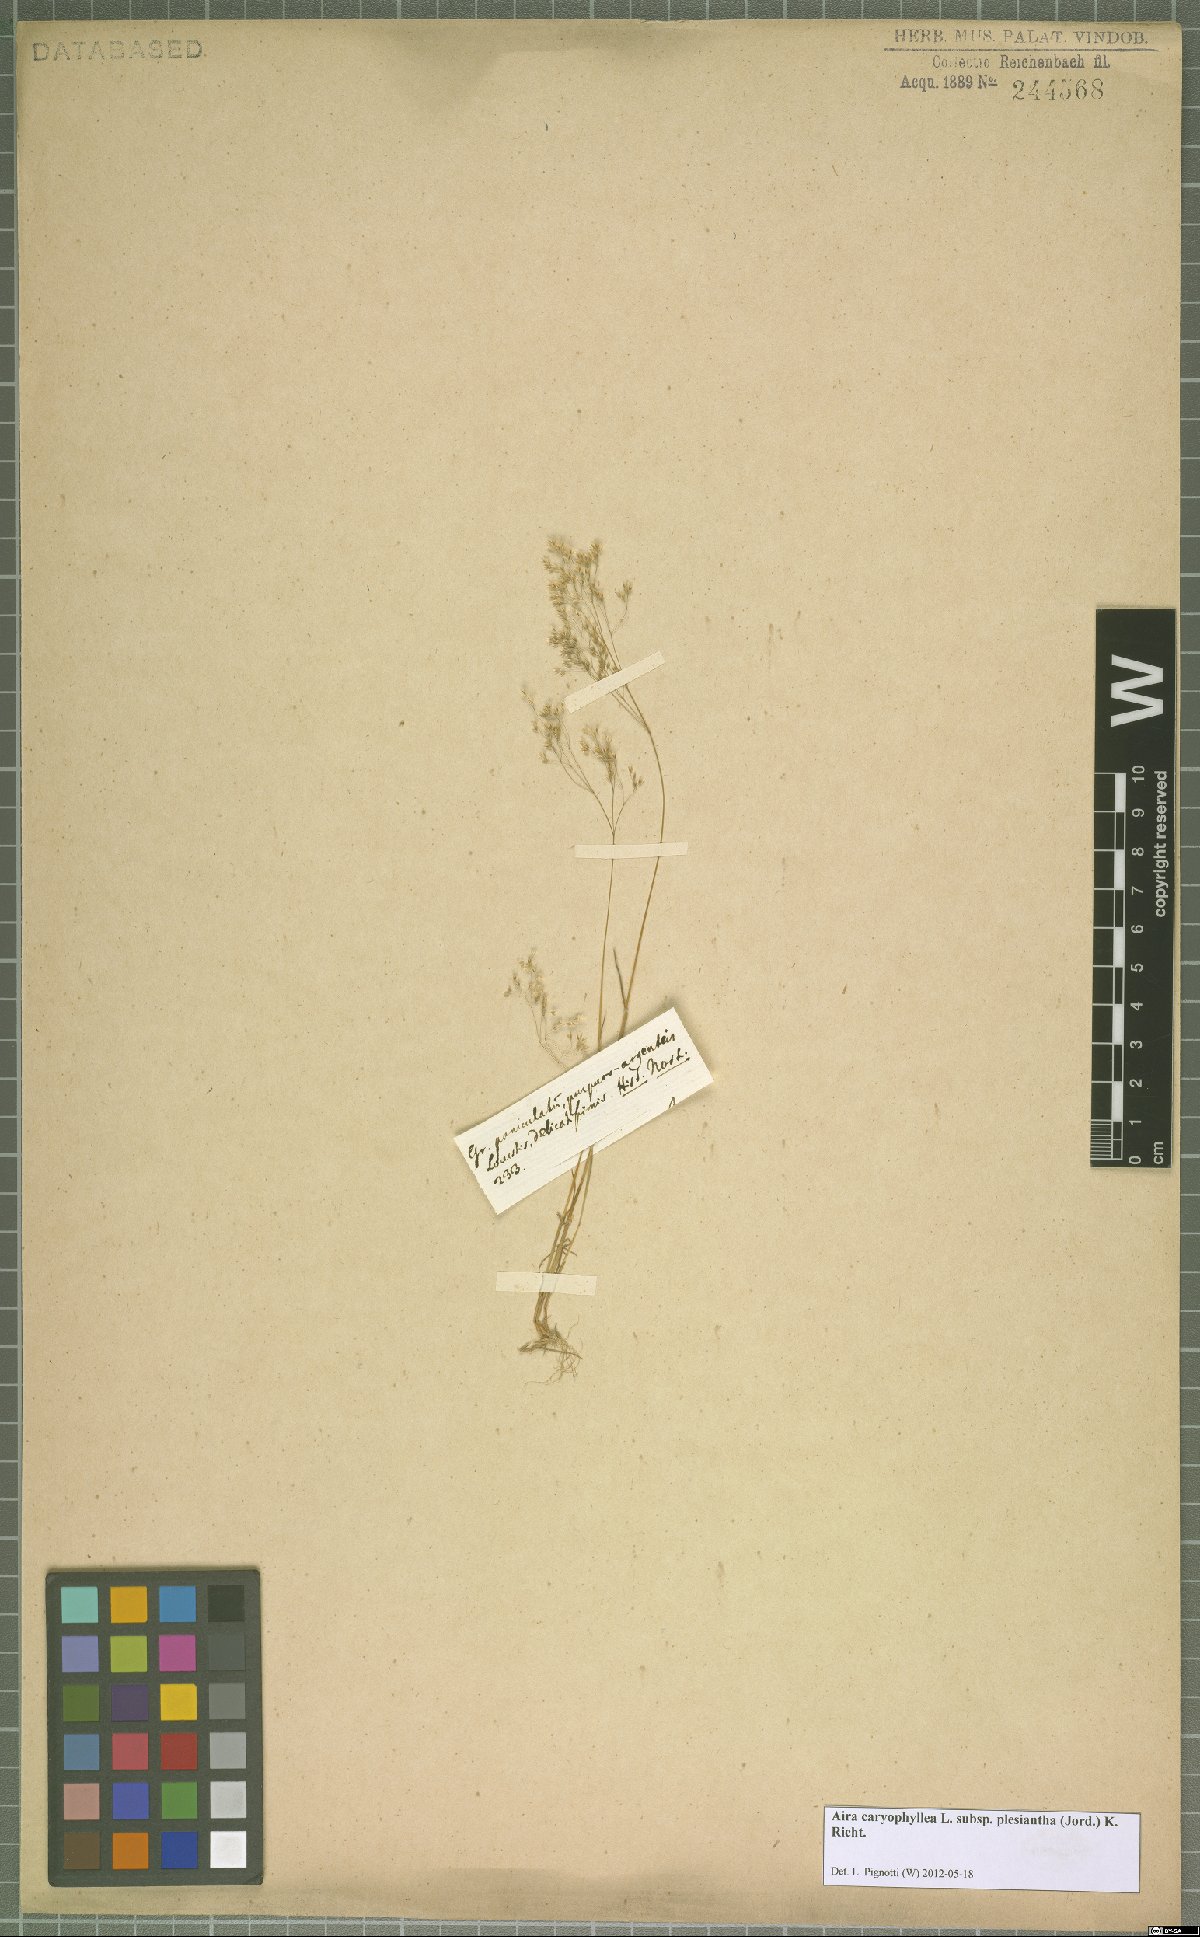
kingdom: Plantae
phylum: Tracheophyta
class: Liliopsida
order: Poales
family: Poaceae
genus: Aira
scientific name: Aira caryophyllea
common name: Silver hairgrass
